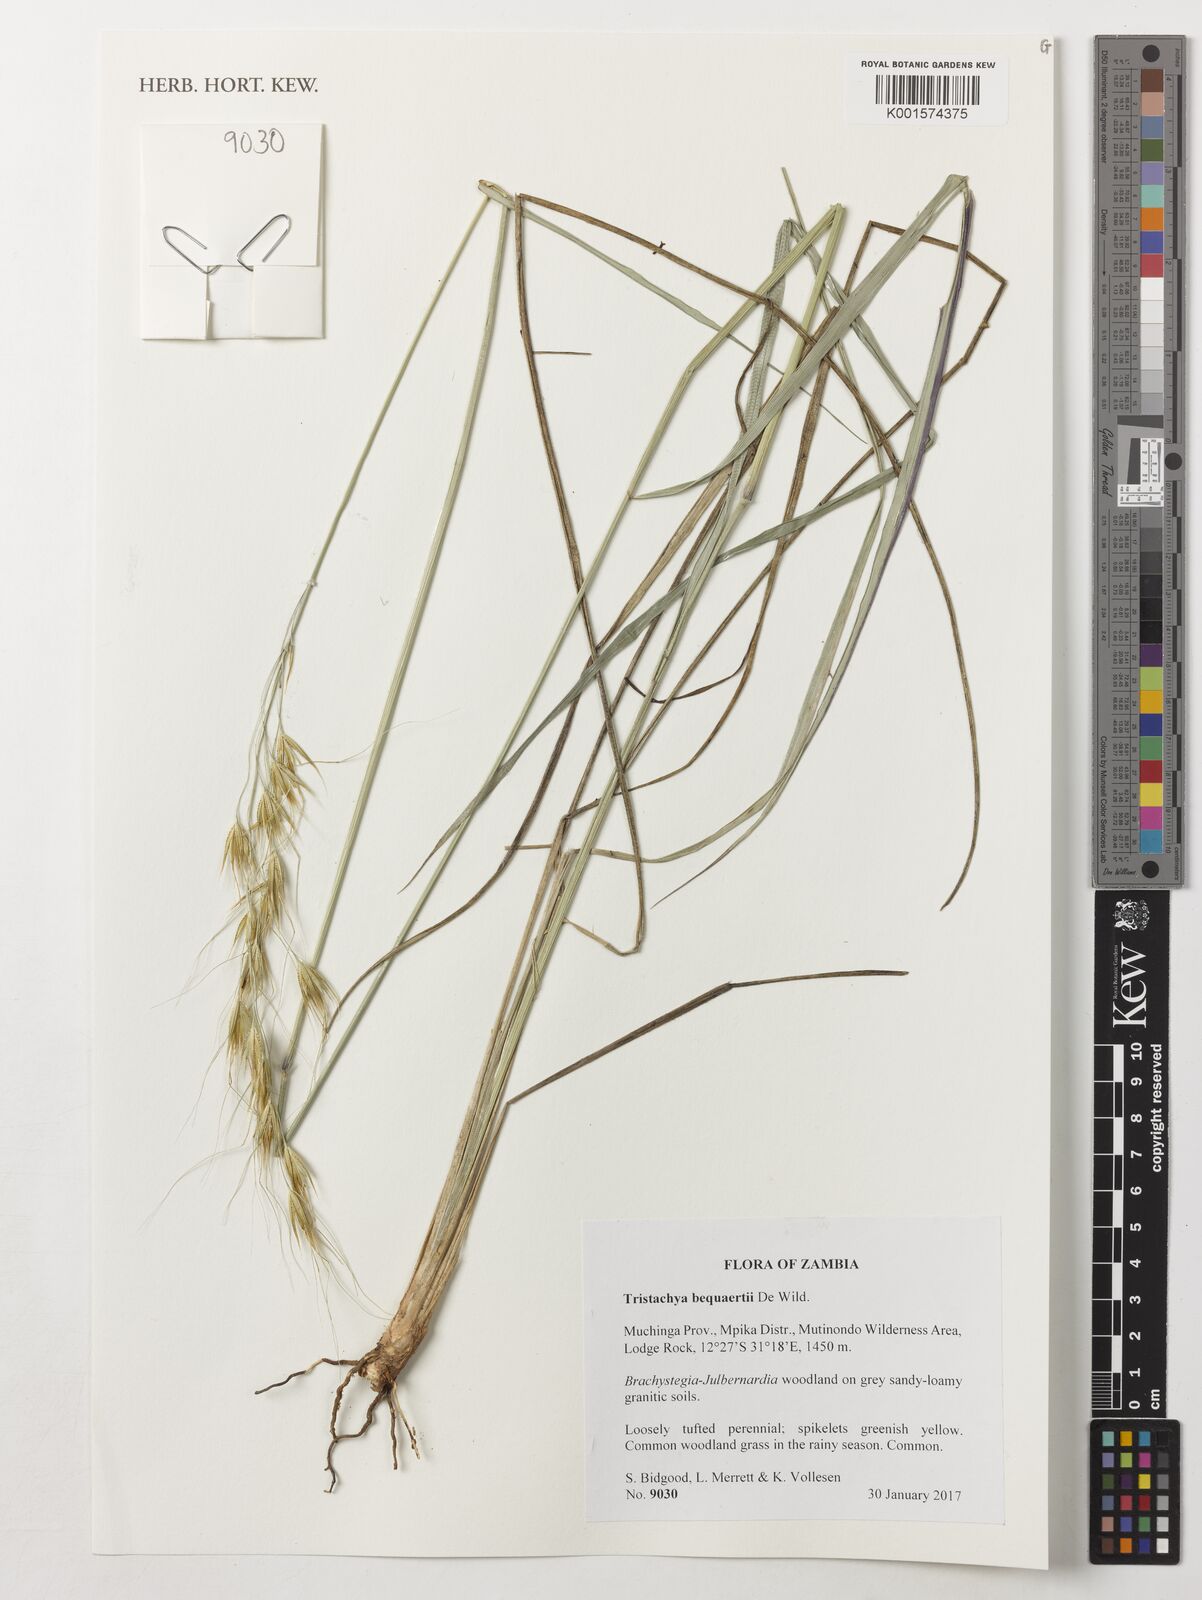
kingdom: Plantae
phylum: Tracheophyta
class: Liliopsida
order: Poales
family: Poaceae
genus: Tristachya
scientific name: Tristachya bequaertii
